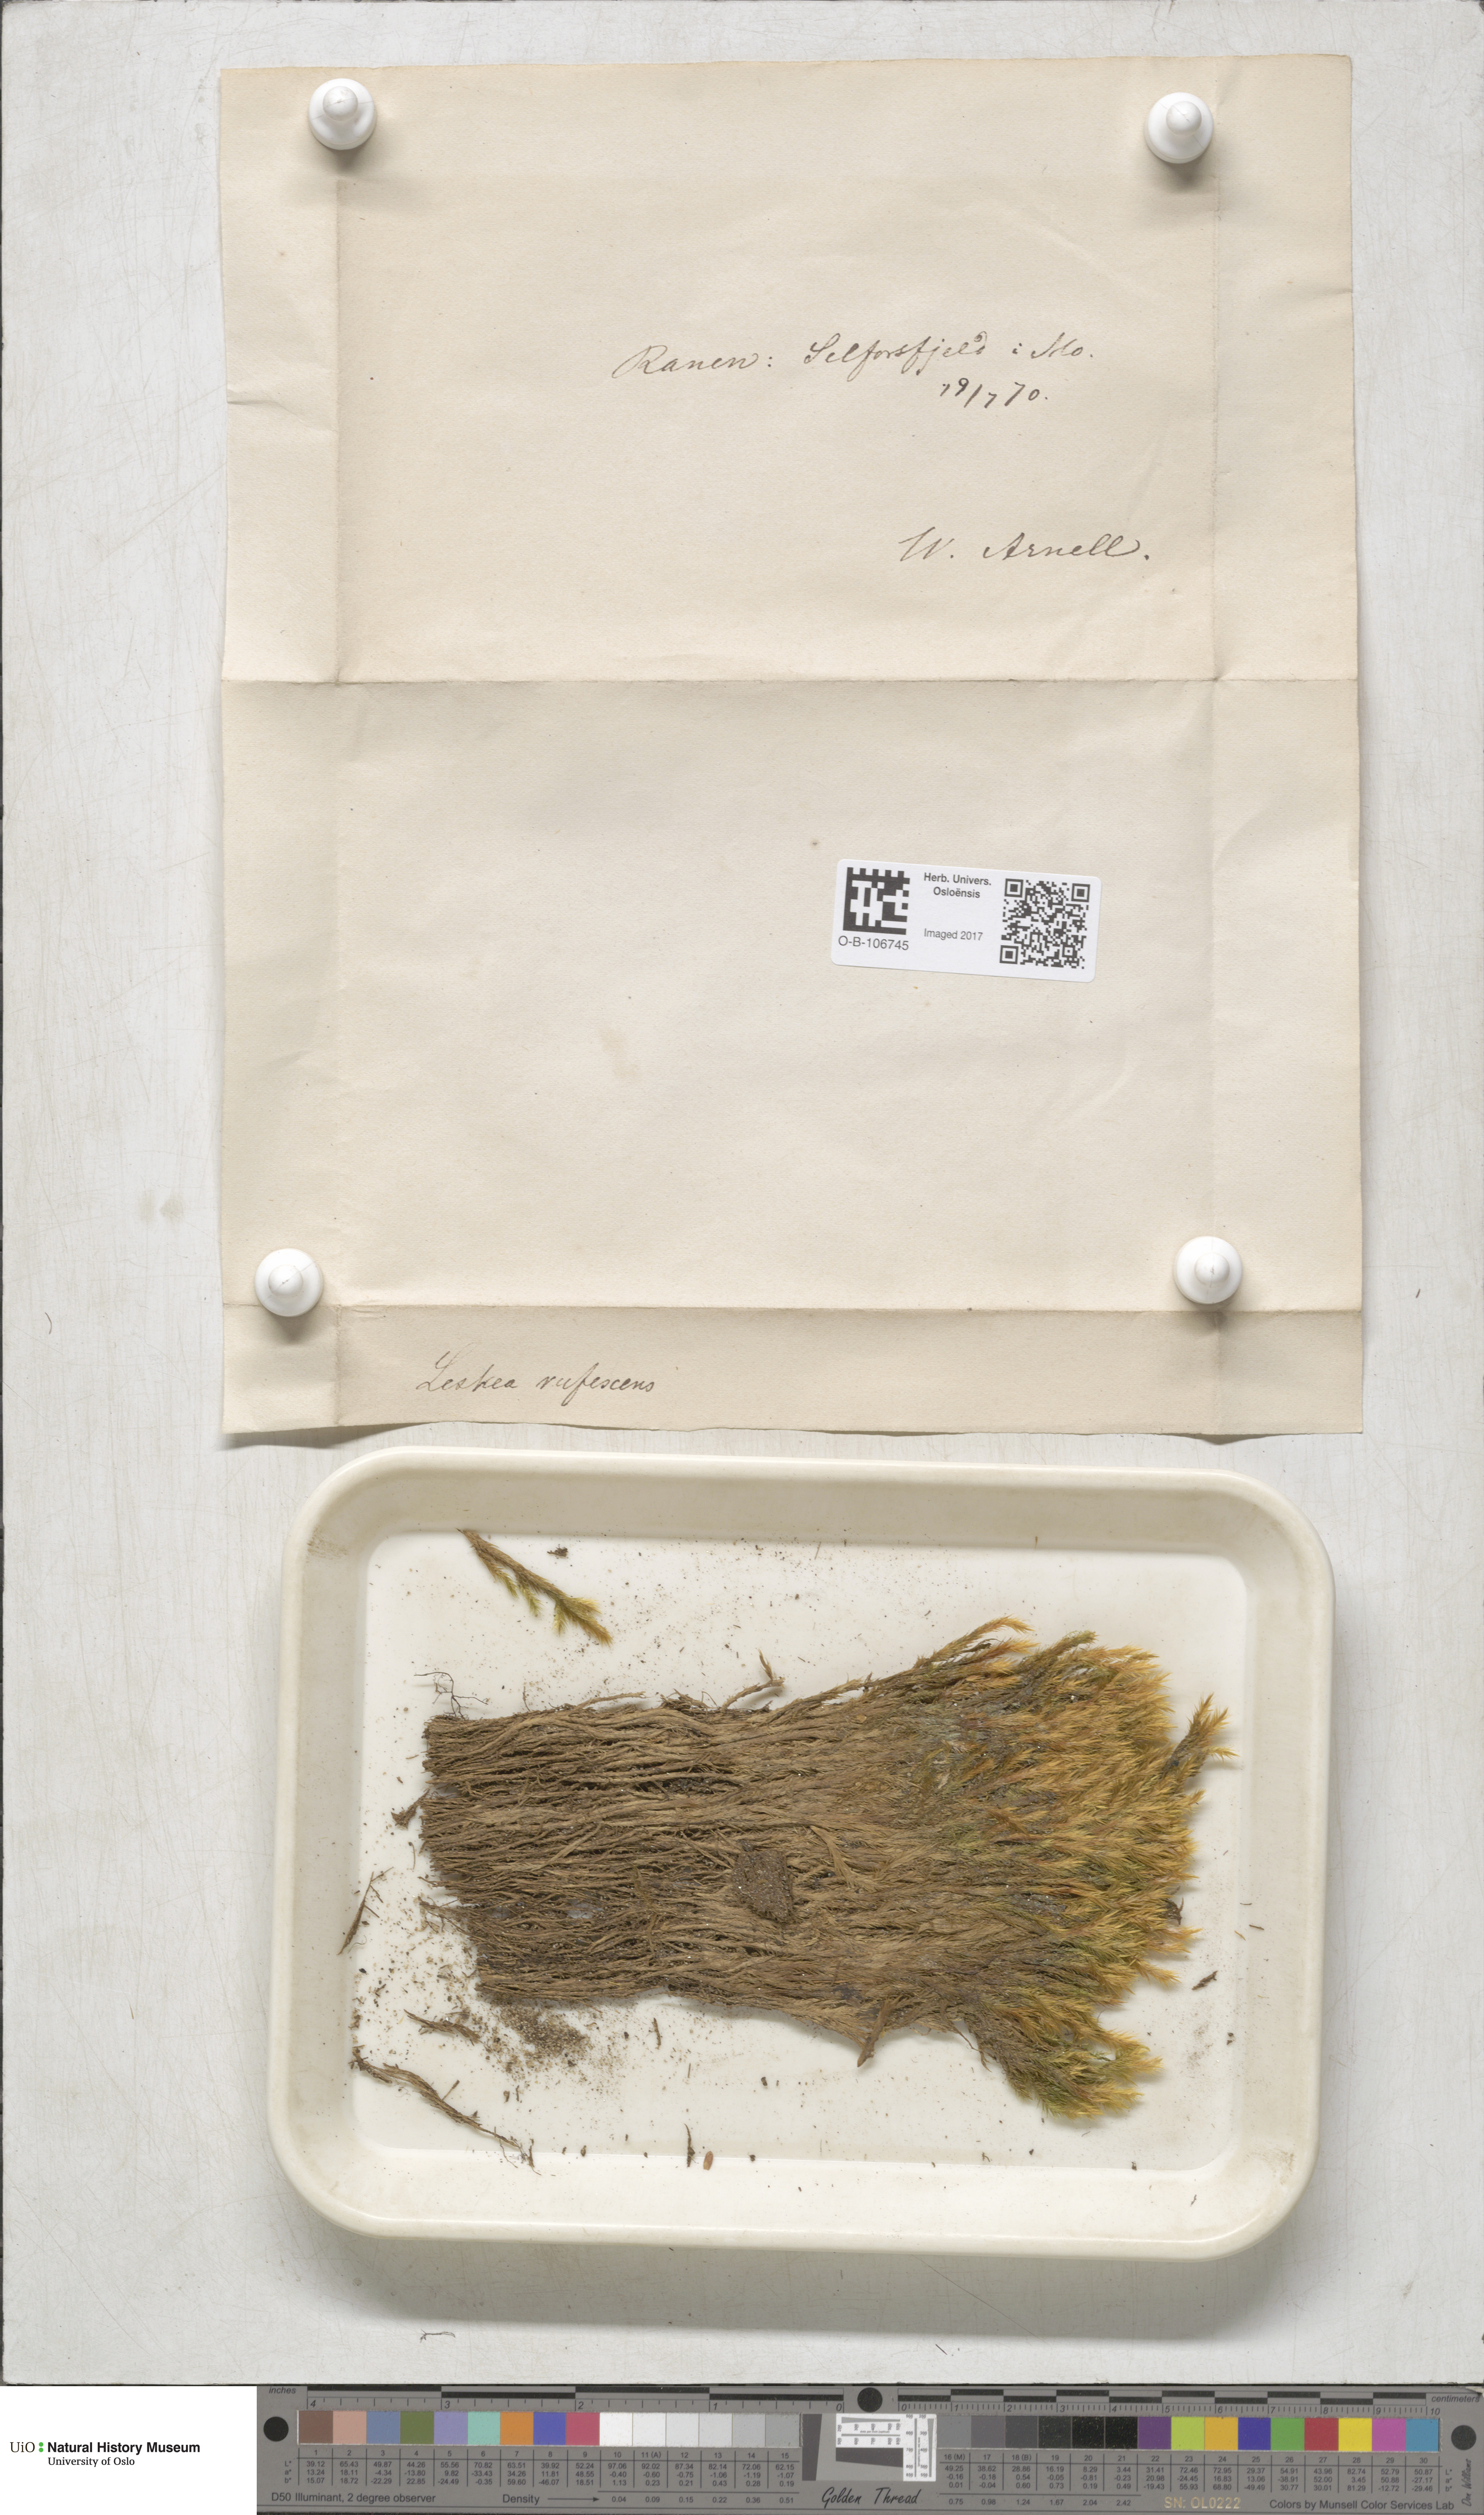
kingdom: Plantae
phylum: Bryophyta
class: Bryopsida
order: Hypnales
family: Plagiotheciaceae
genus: Orthothecium
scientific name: Orthothecium rufescens
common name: Red leskea
